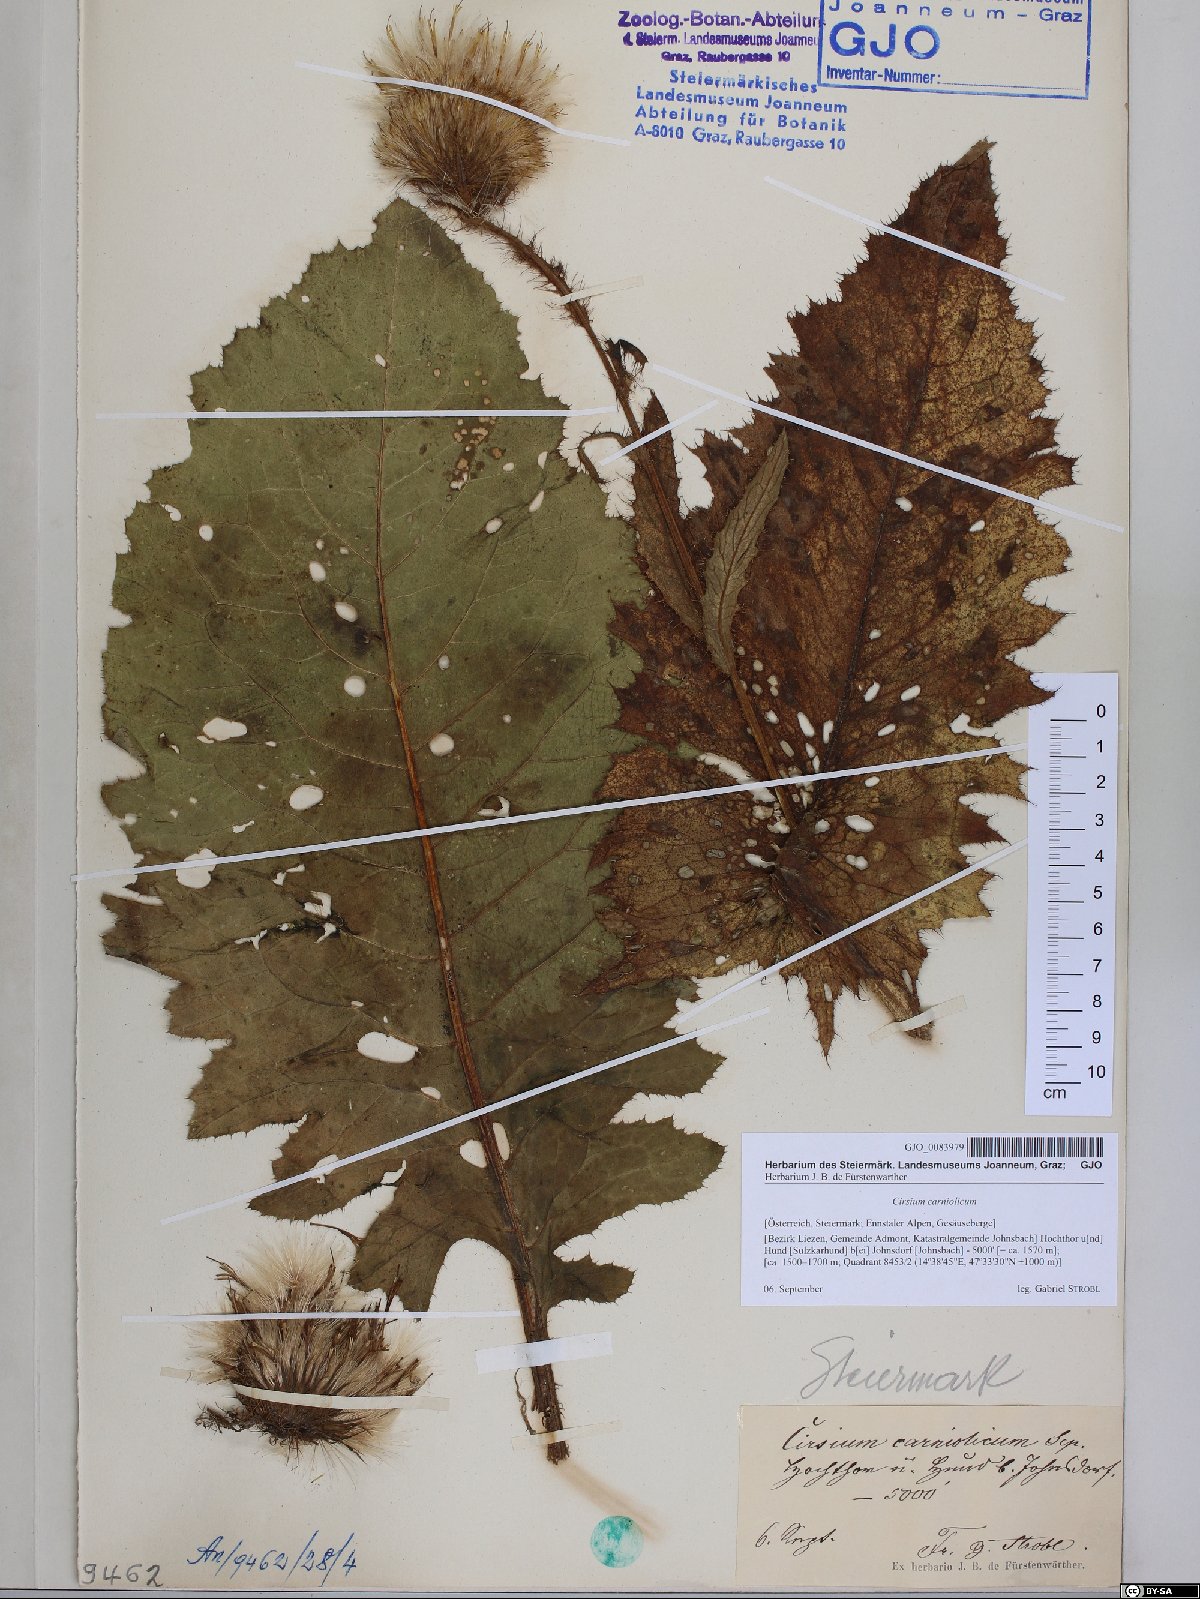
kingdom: Plantae
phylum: Tracheophyta
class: Magnoliopsida
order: Asterales
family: Asteraceae
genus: Cirsium
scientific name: Cirsium carniolicum
